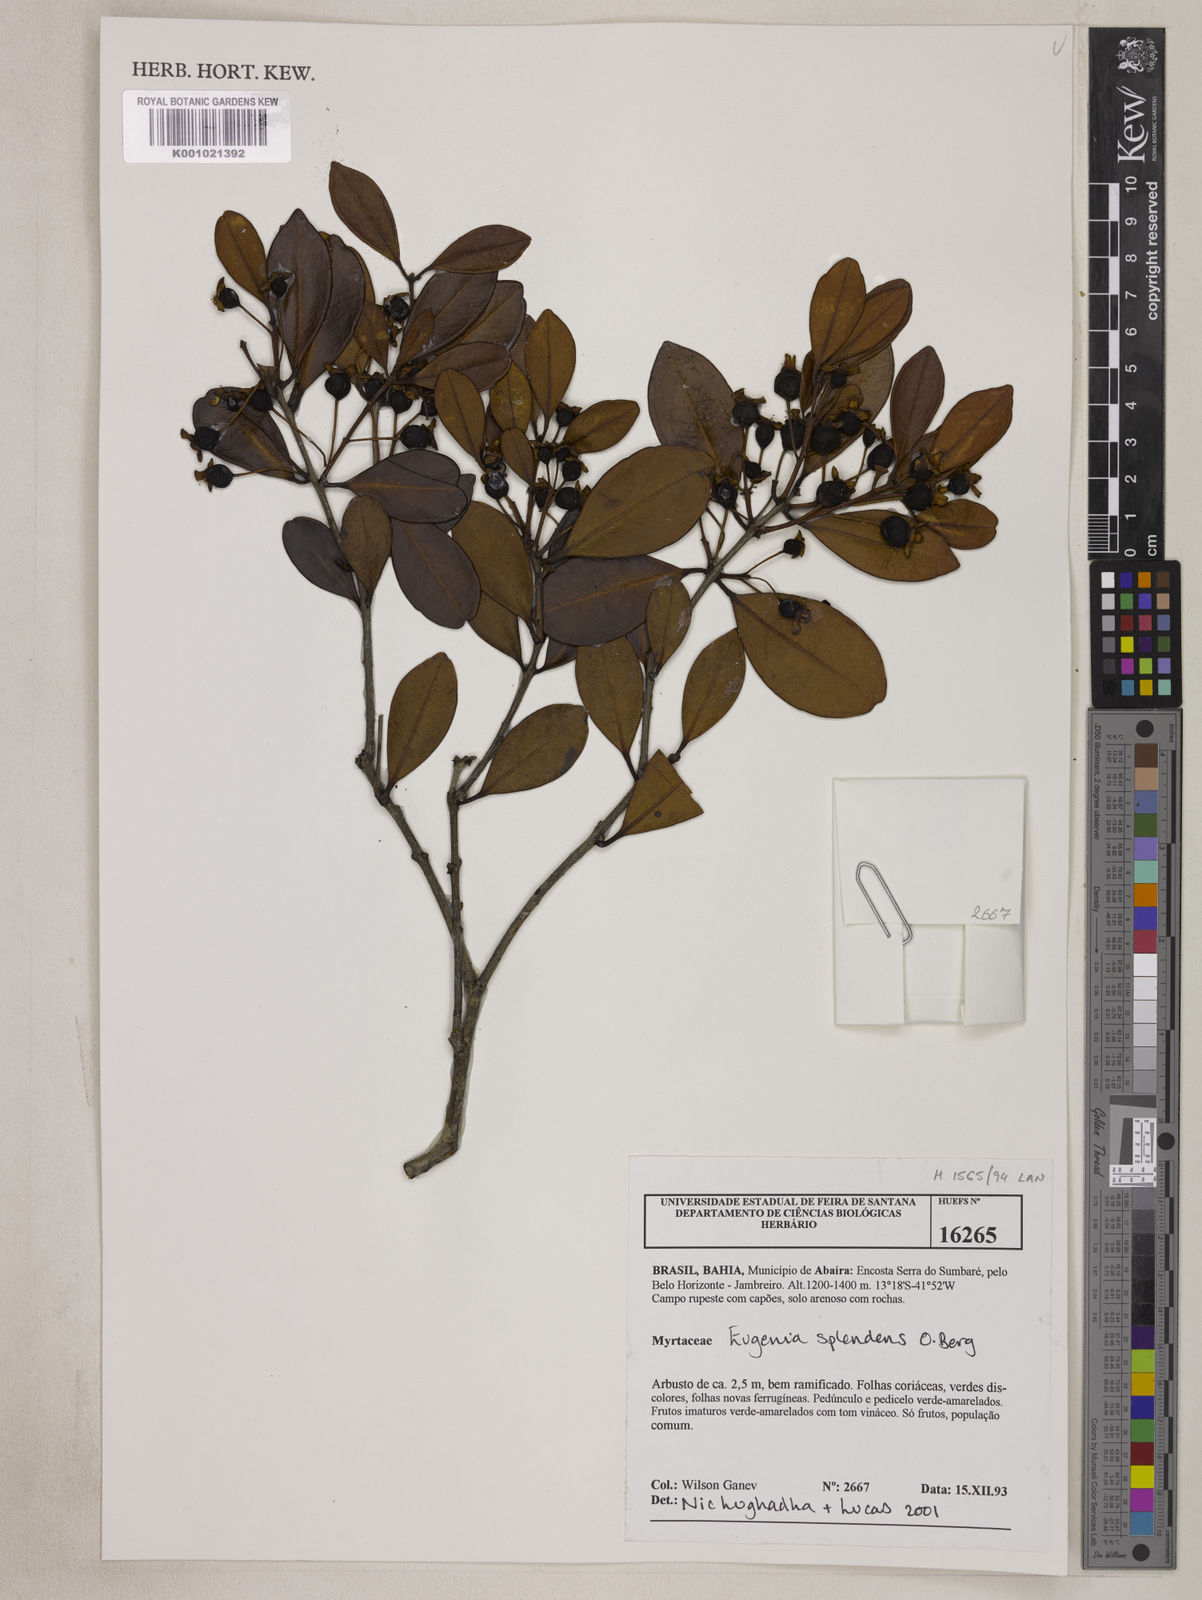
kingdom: Plantae
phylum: Tracheophyta
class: Magnoliopsida
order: Myrtales
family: Myrtaceae
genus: Eugenia
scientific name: Eugenia splendens
